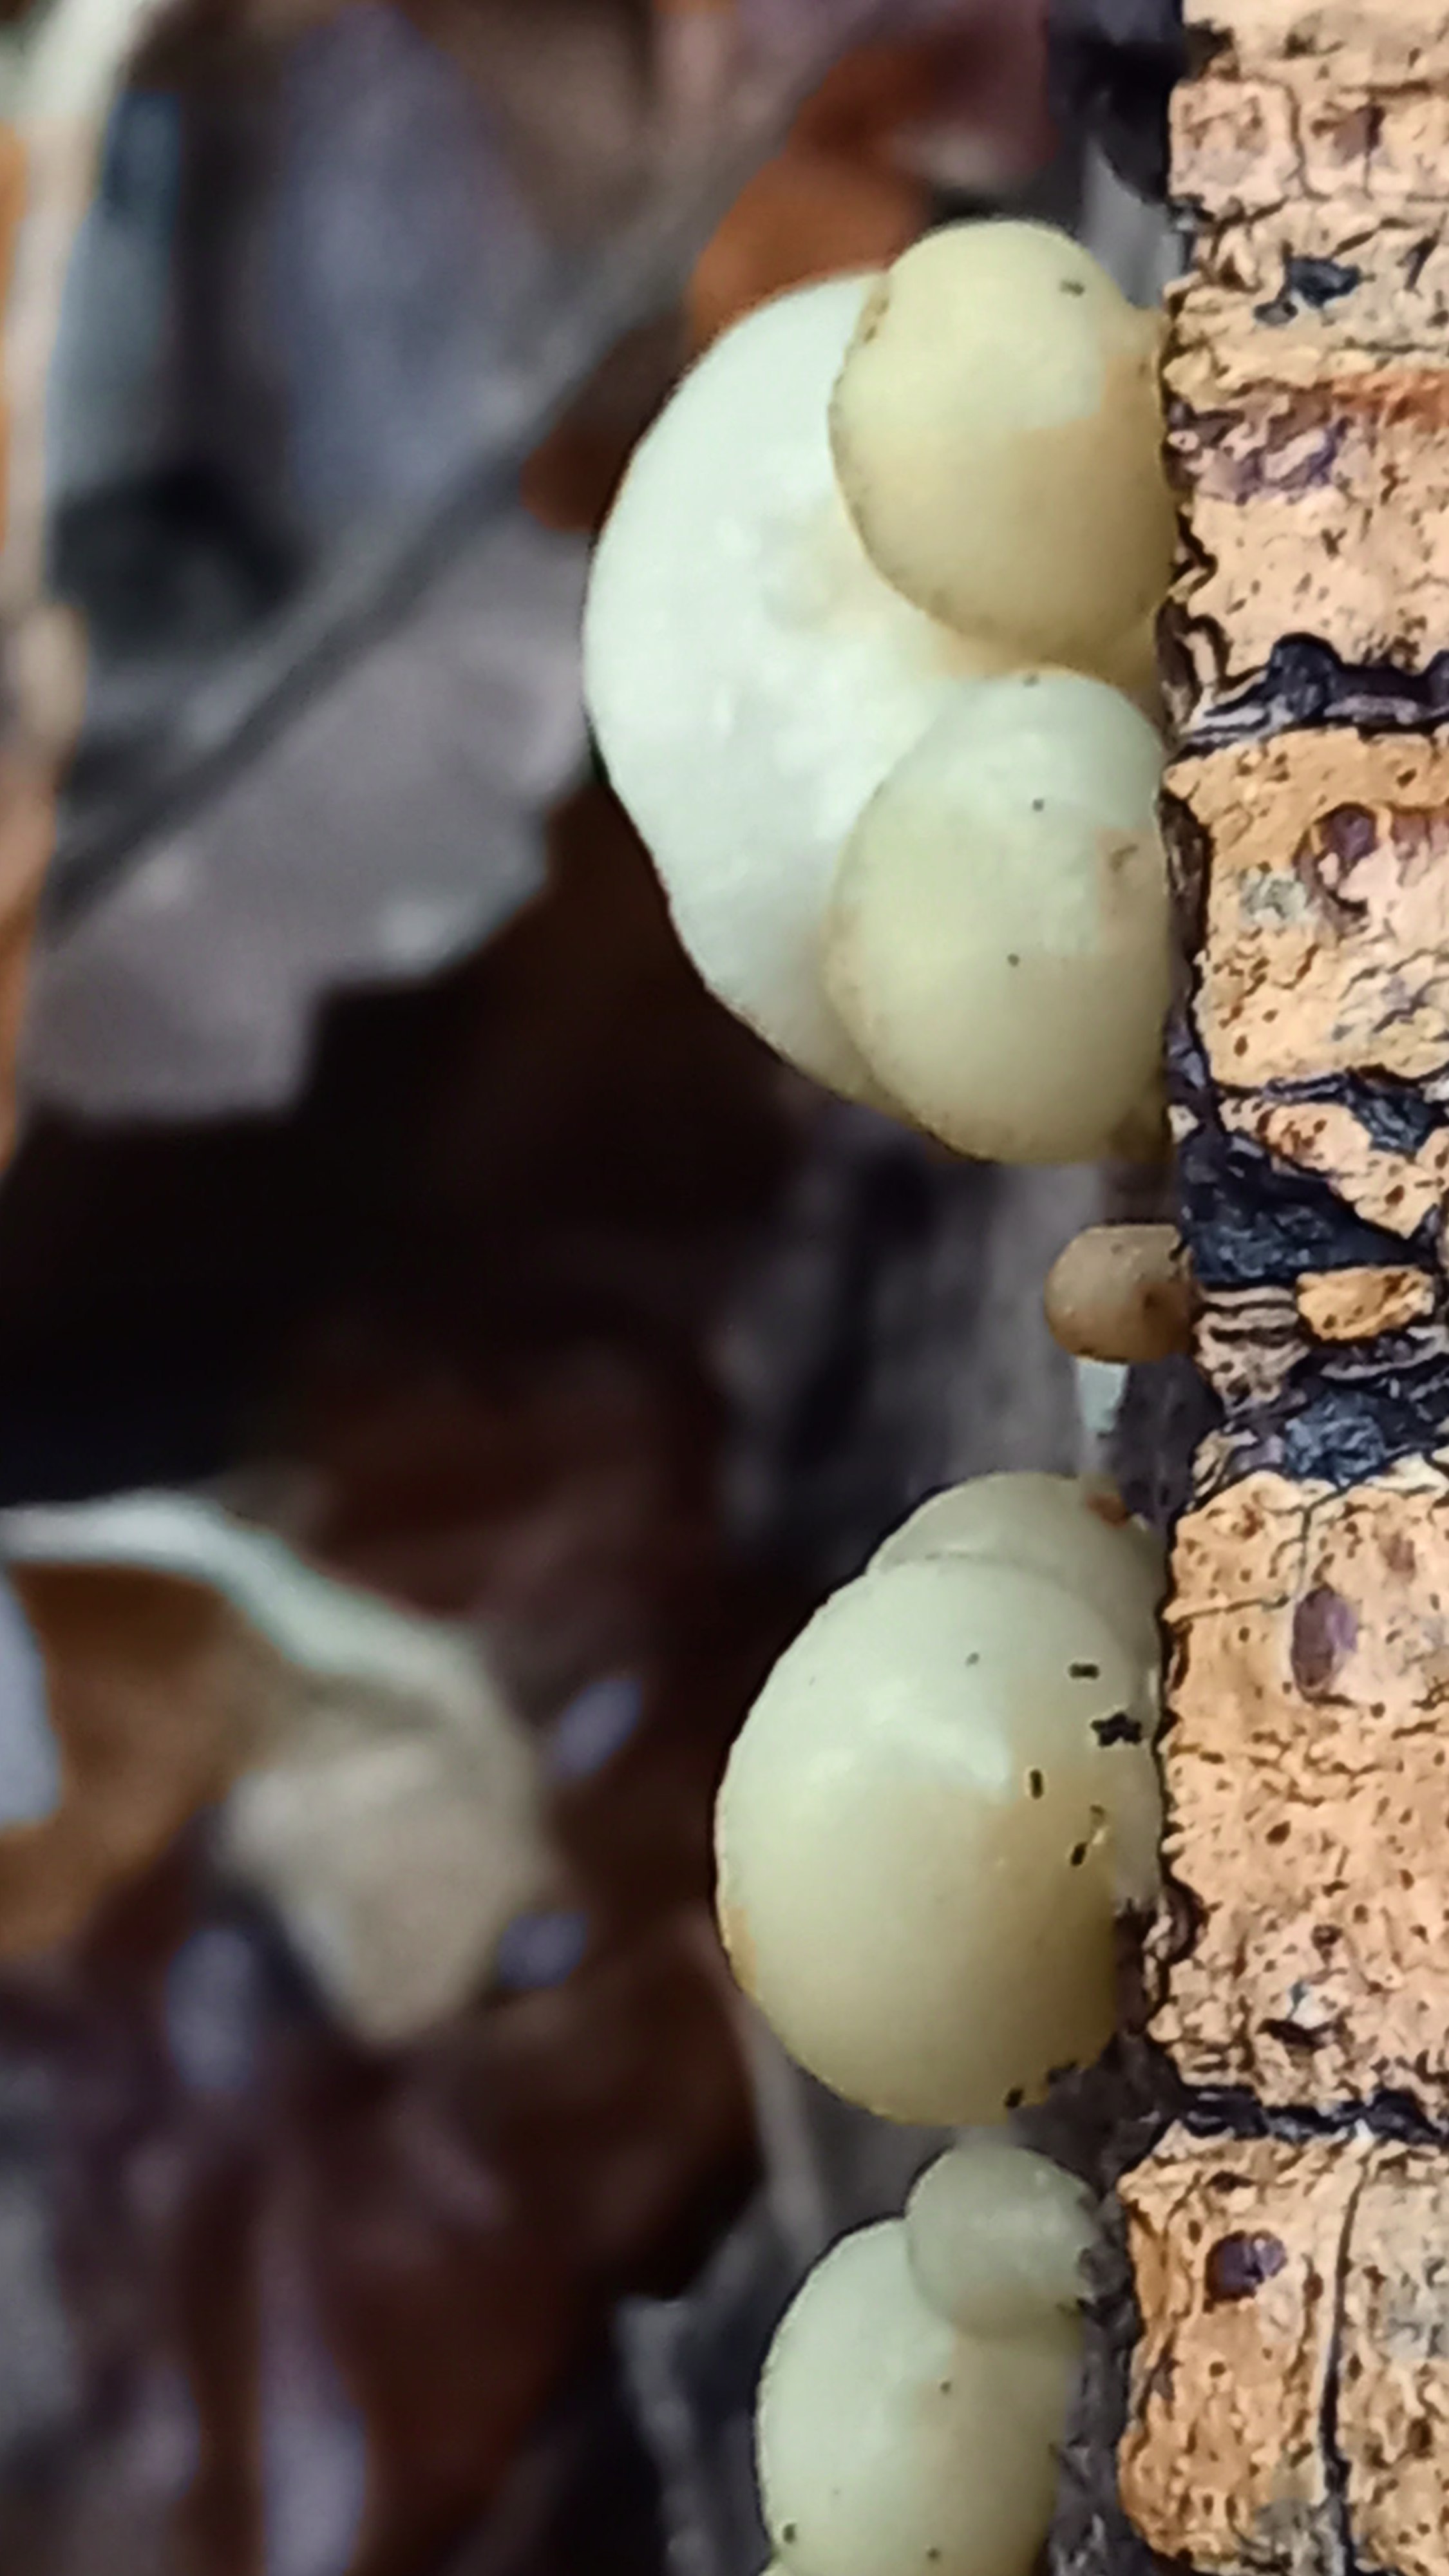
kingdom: Fungi
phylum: Basidiomycota
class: Agaricomycetes
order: Agaricales
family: Crepidotaceae
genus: Crepidotus
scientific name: Crepidotus mollis
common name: blød muslingesvamp
